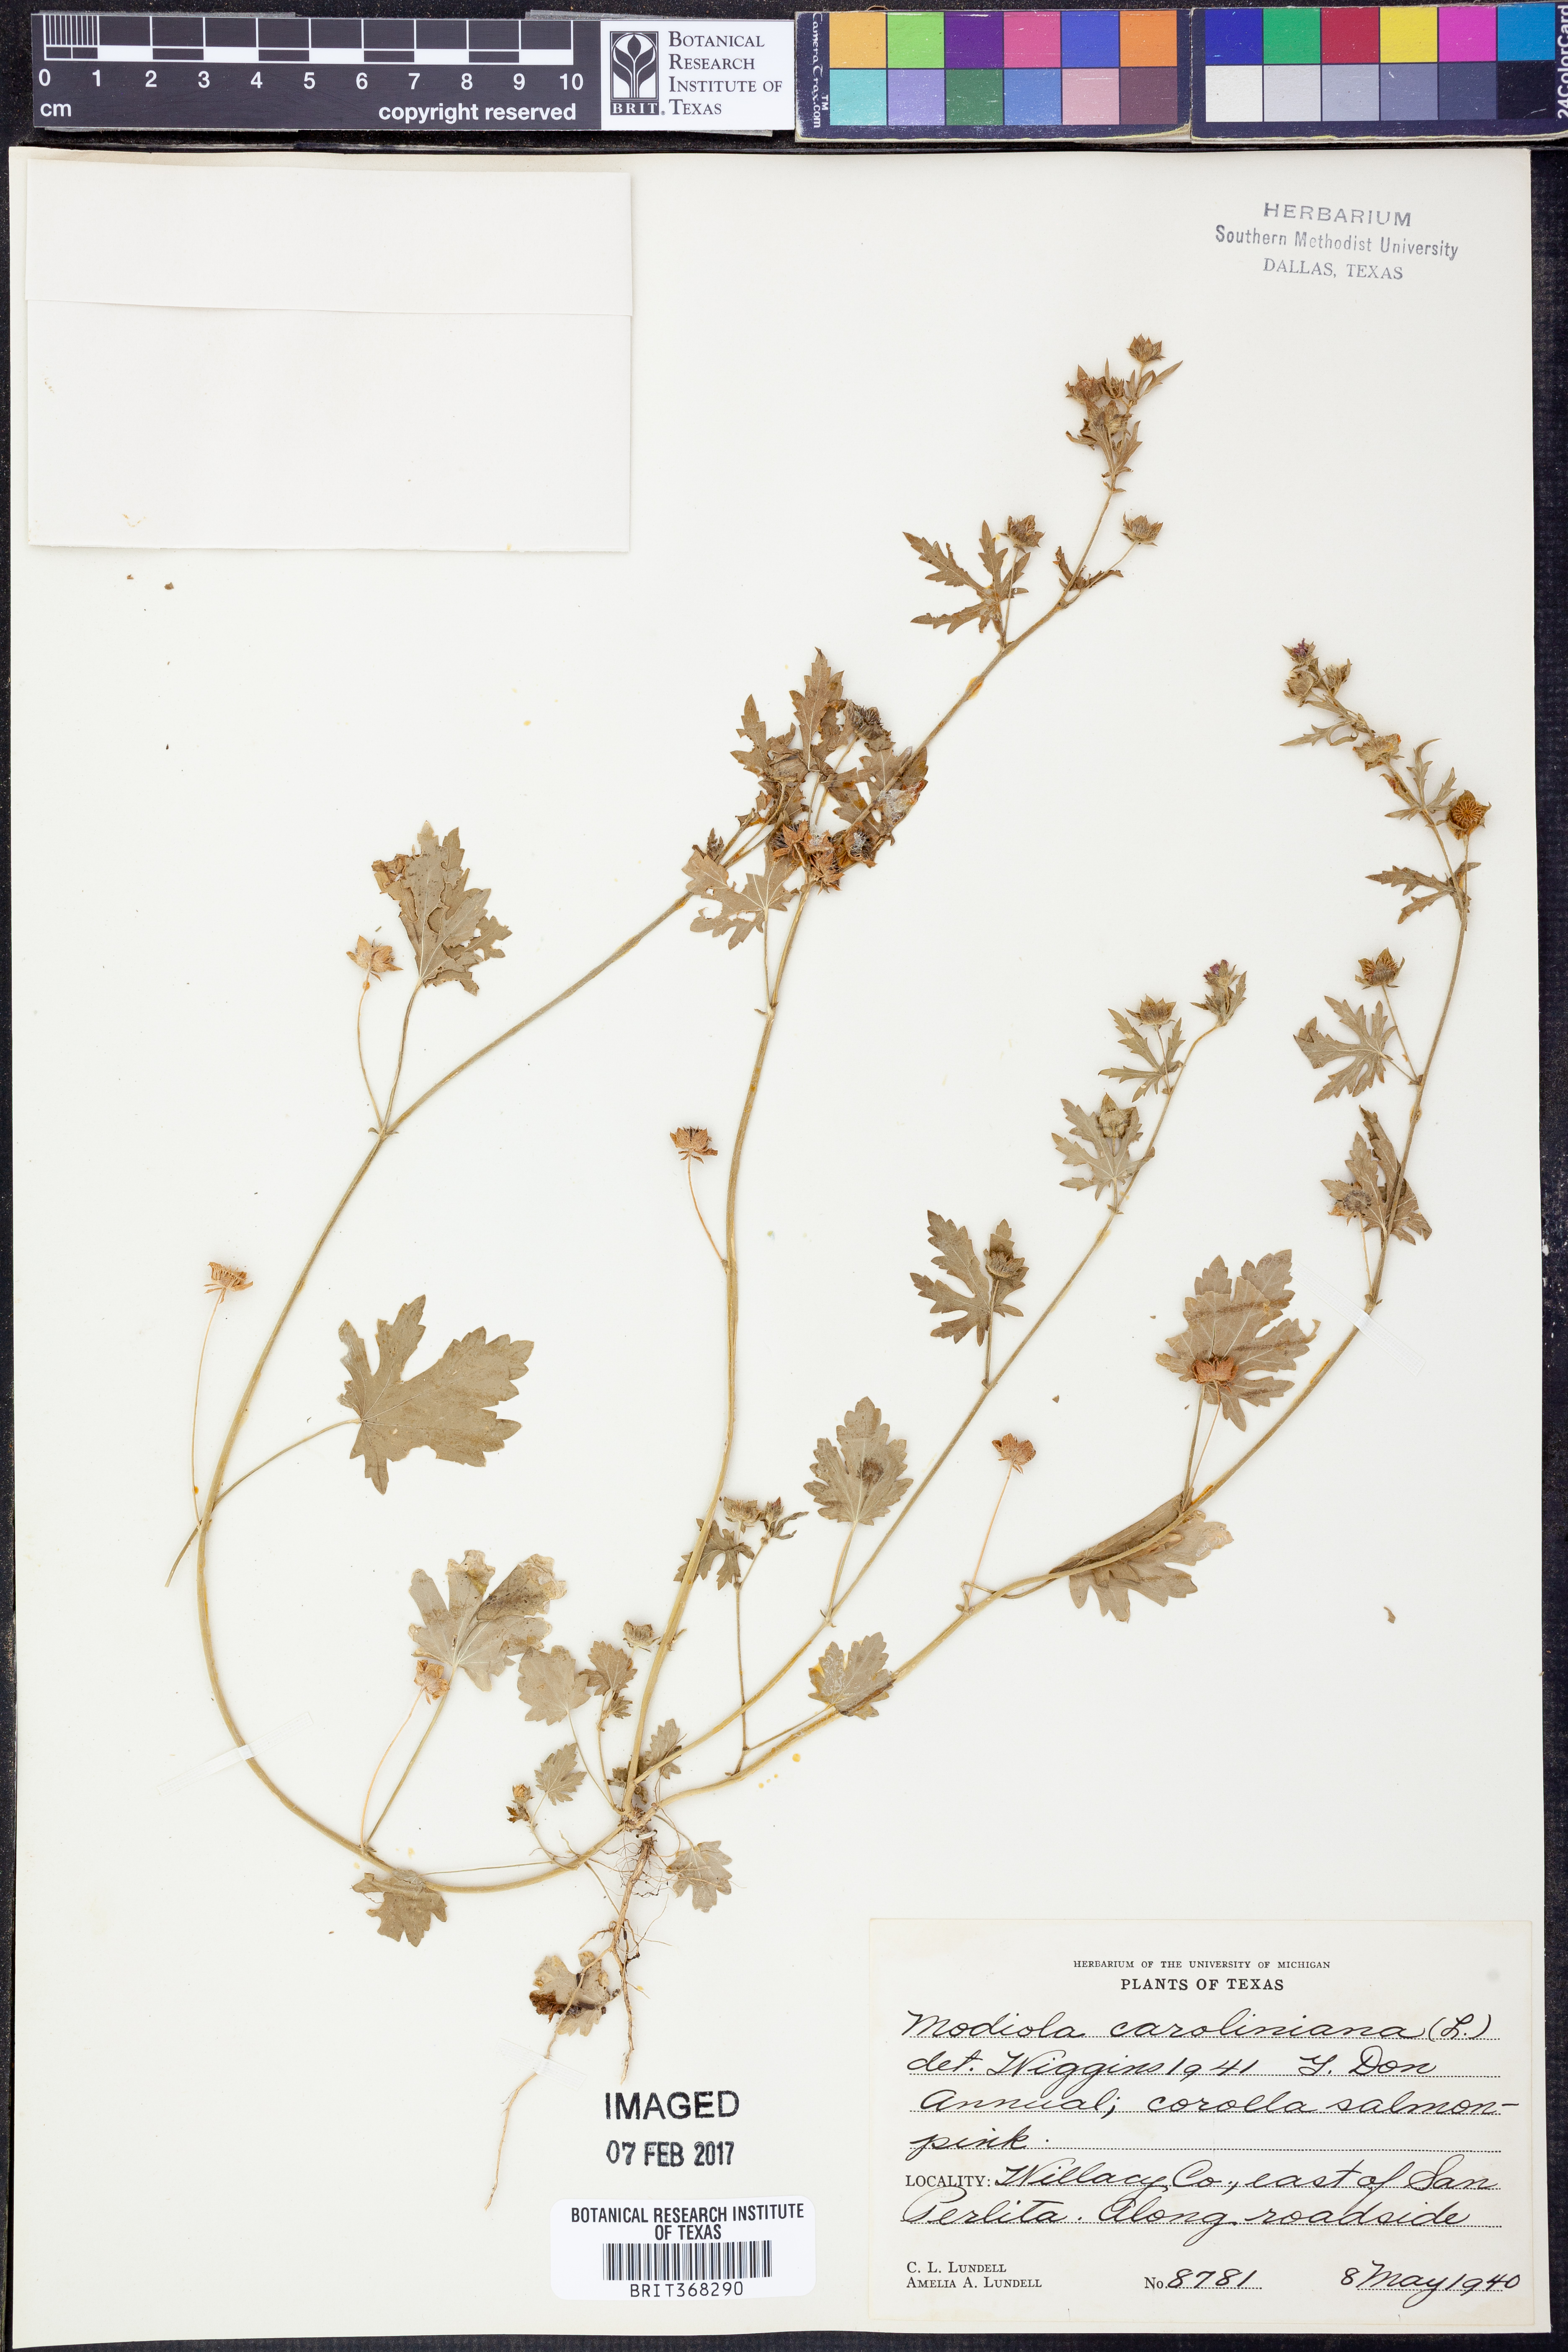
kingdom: Plantae
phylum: Tracheophyta
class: Magnoliopsida
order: Malvales
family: Malvaceae
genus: Modiola
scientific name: Modiola caroliniana
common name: Carolina bristlemallow
